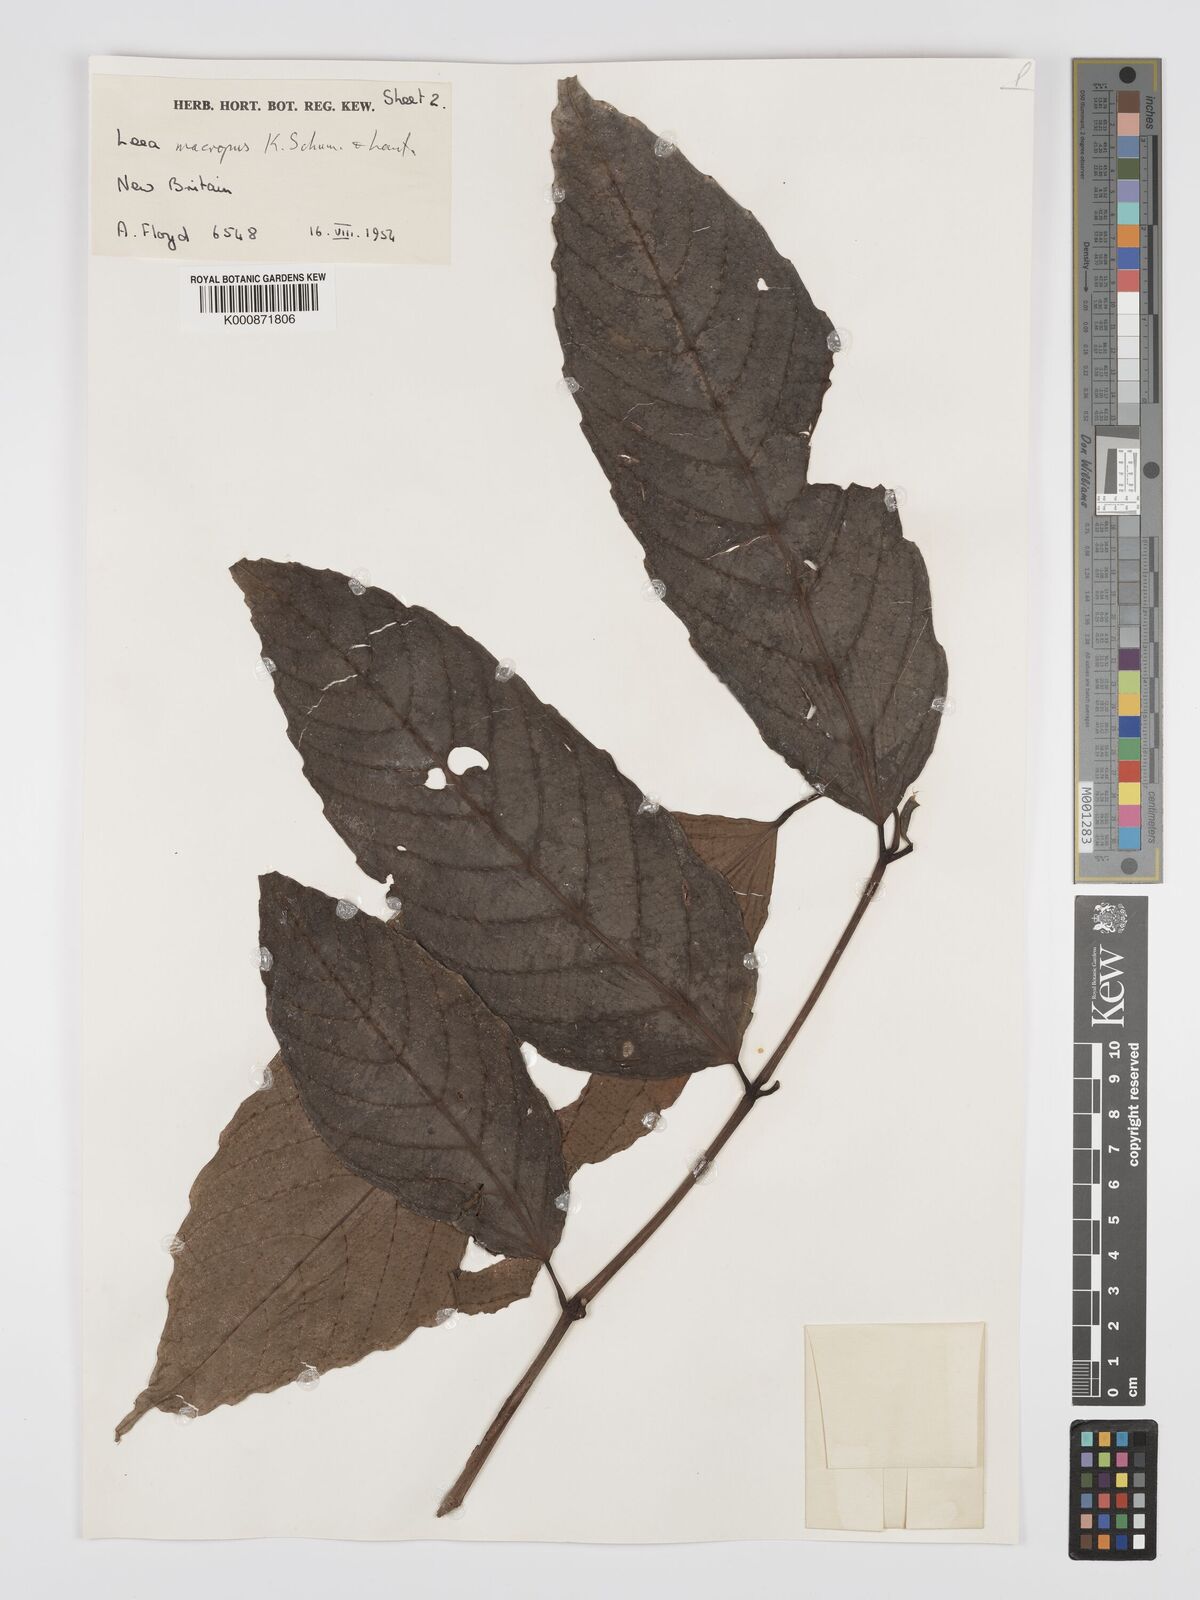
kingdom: Plantae
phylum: Tracheophyta
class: Magnoliopsida
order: Vitales
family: Vitaceae
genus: Leea
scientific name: Leea
